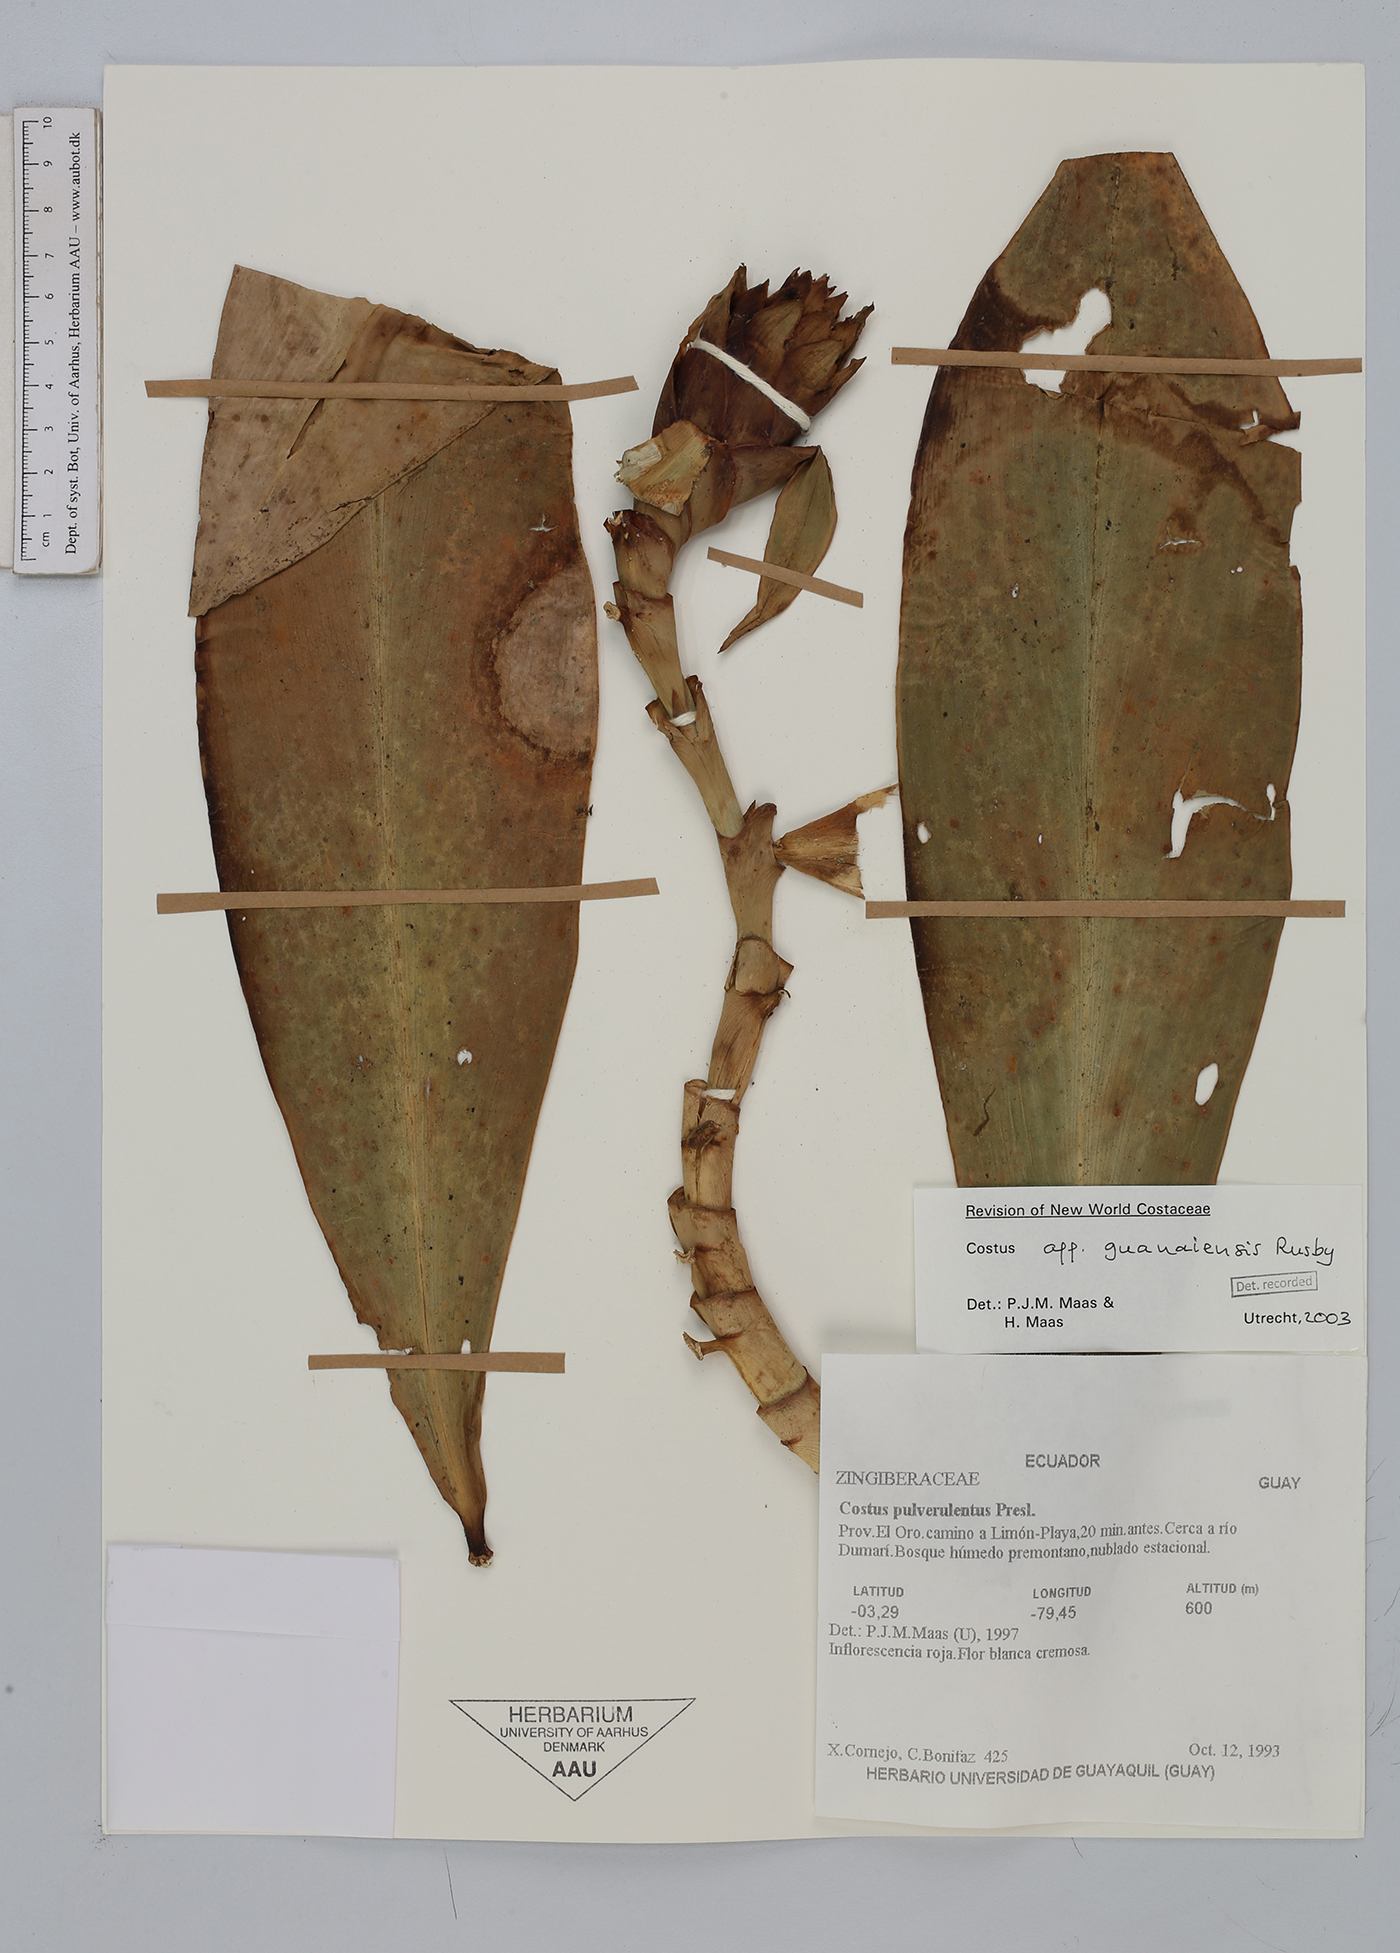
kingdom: Plantae
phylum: Tracheophyta
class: Liliopsida
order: Zingiberales
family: Costaceae
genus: Costus
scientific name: Costus guanaiensis
